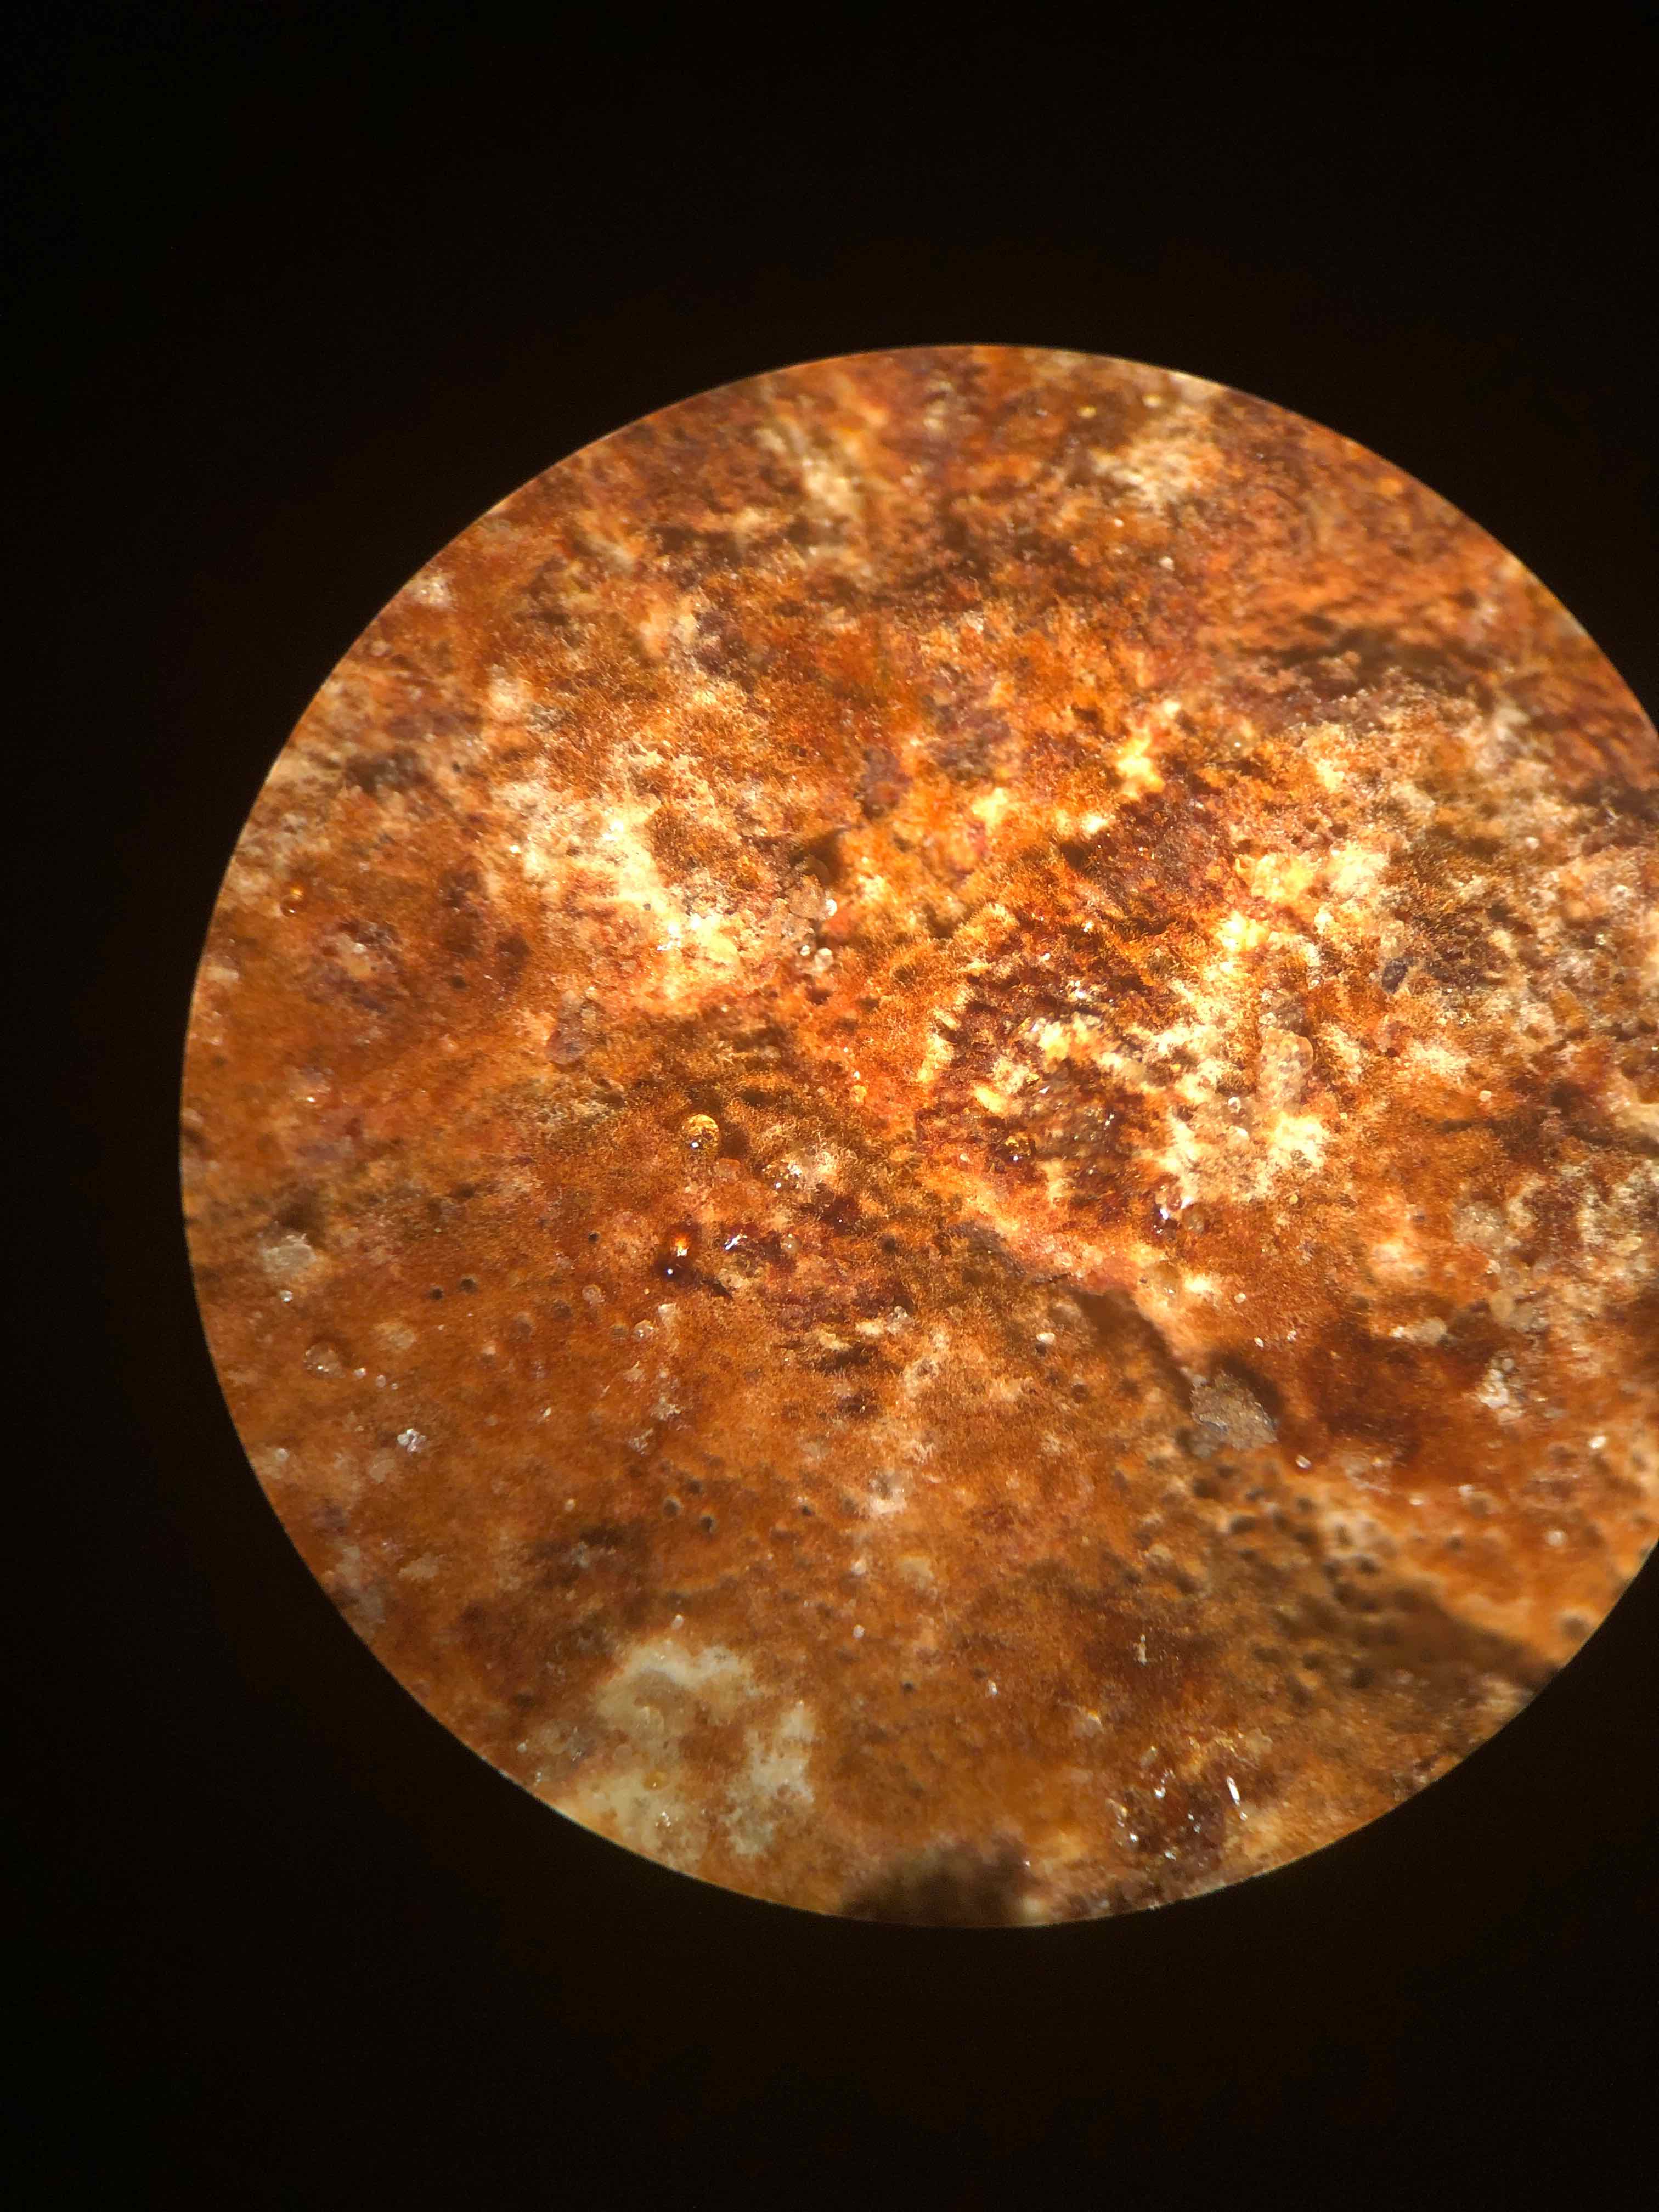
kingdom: Fungi
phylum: Basidiomycota
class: Agaricomycetes
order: Hymenochaetales
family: Hymenochaetaceae
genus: Fuscoporia
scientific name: Fuscoporia ferrea
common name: skorpe-ildporesvamp
